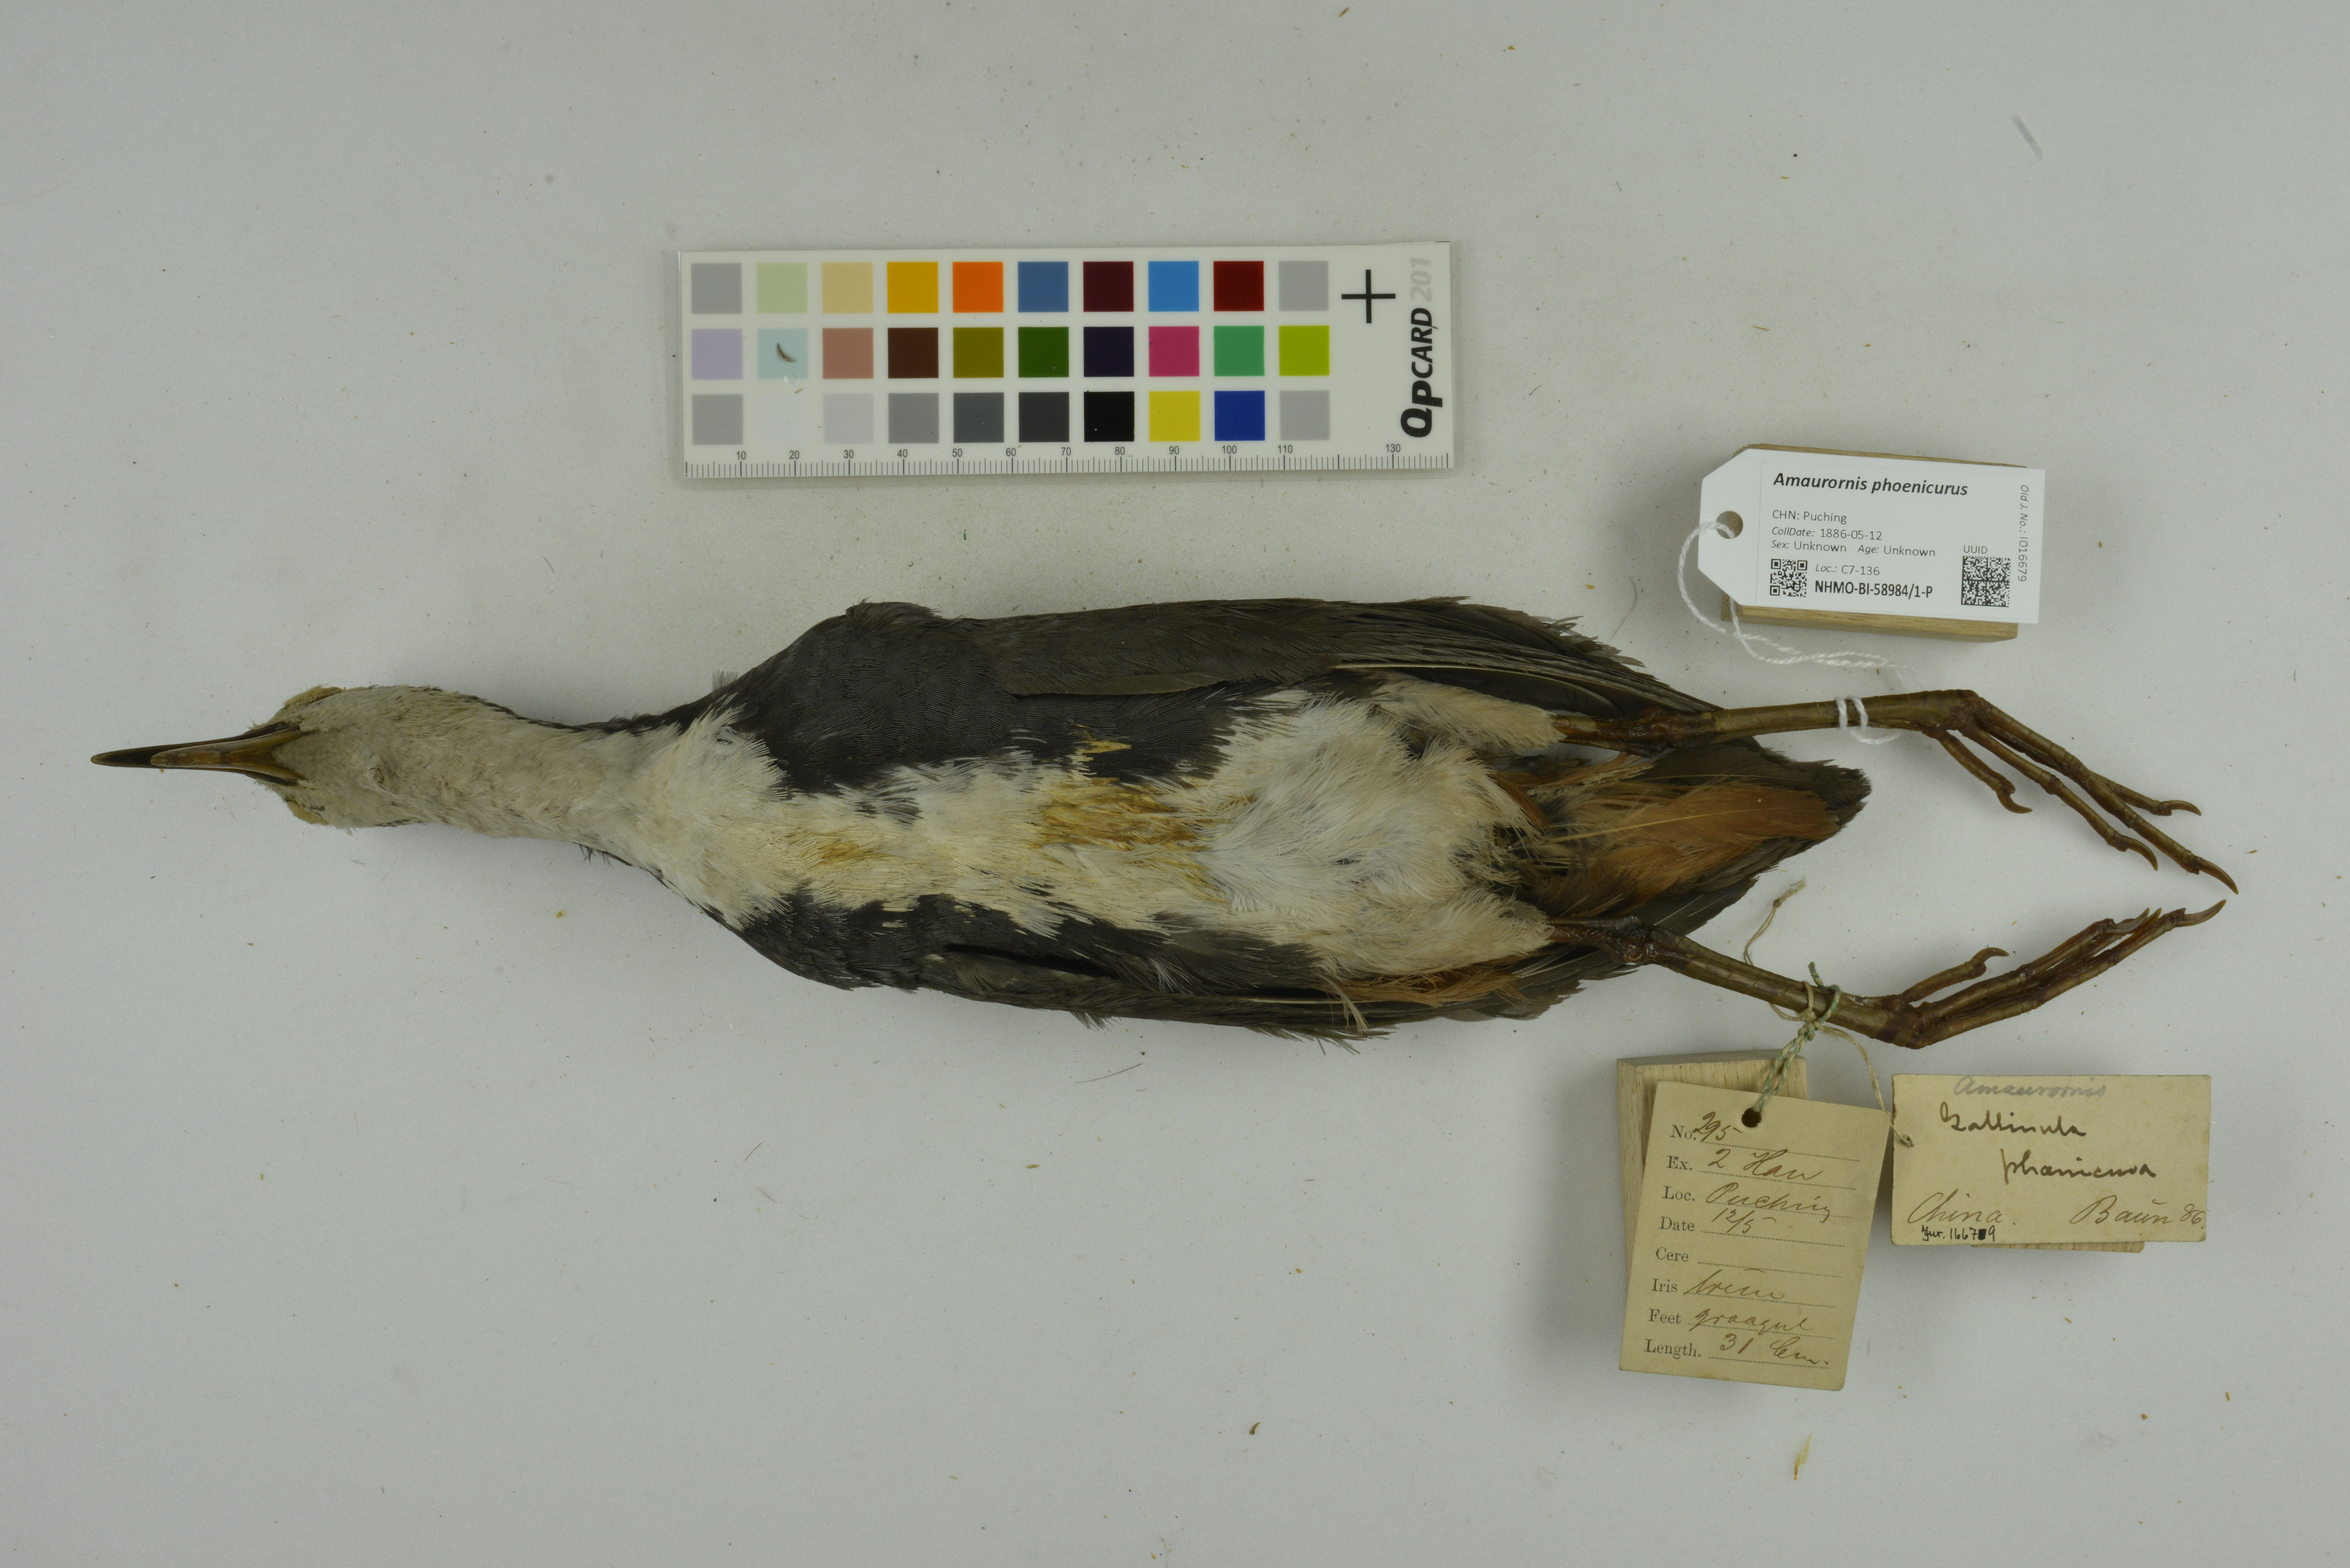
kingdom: Animalia
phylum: Chordata
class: Aves
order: Gruiformes
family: Rallidae
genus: Amaurornis
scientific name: Amaurornis phoenicurus
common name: White-breasted waterhen
